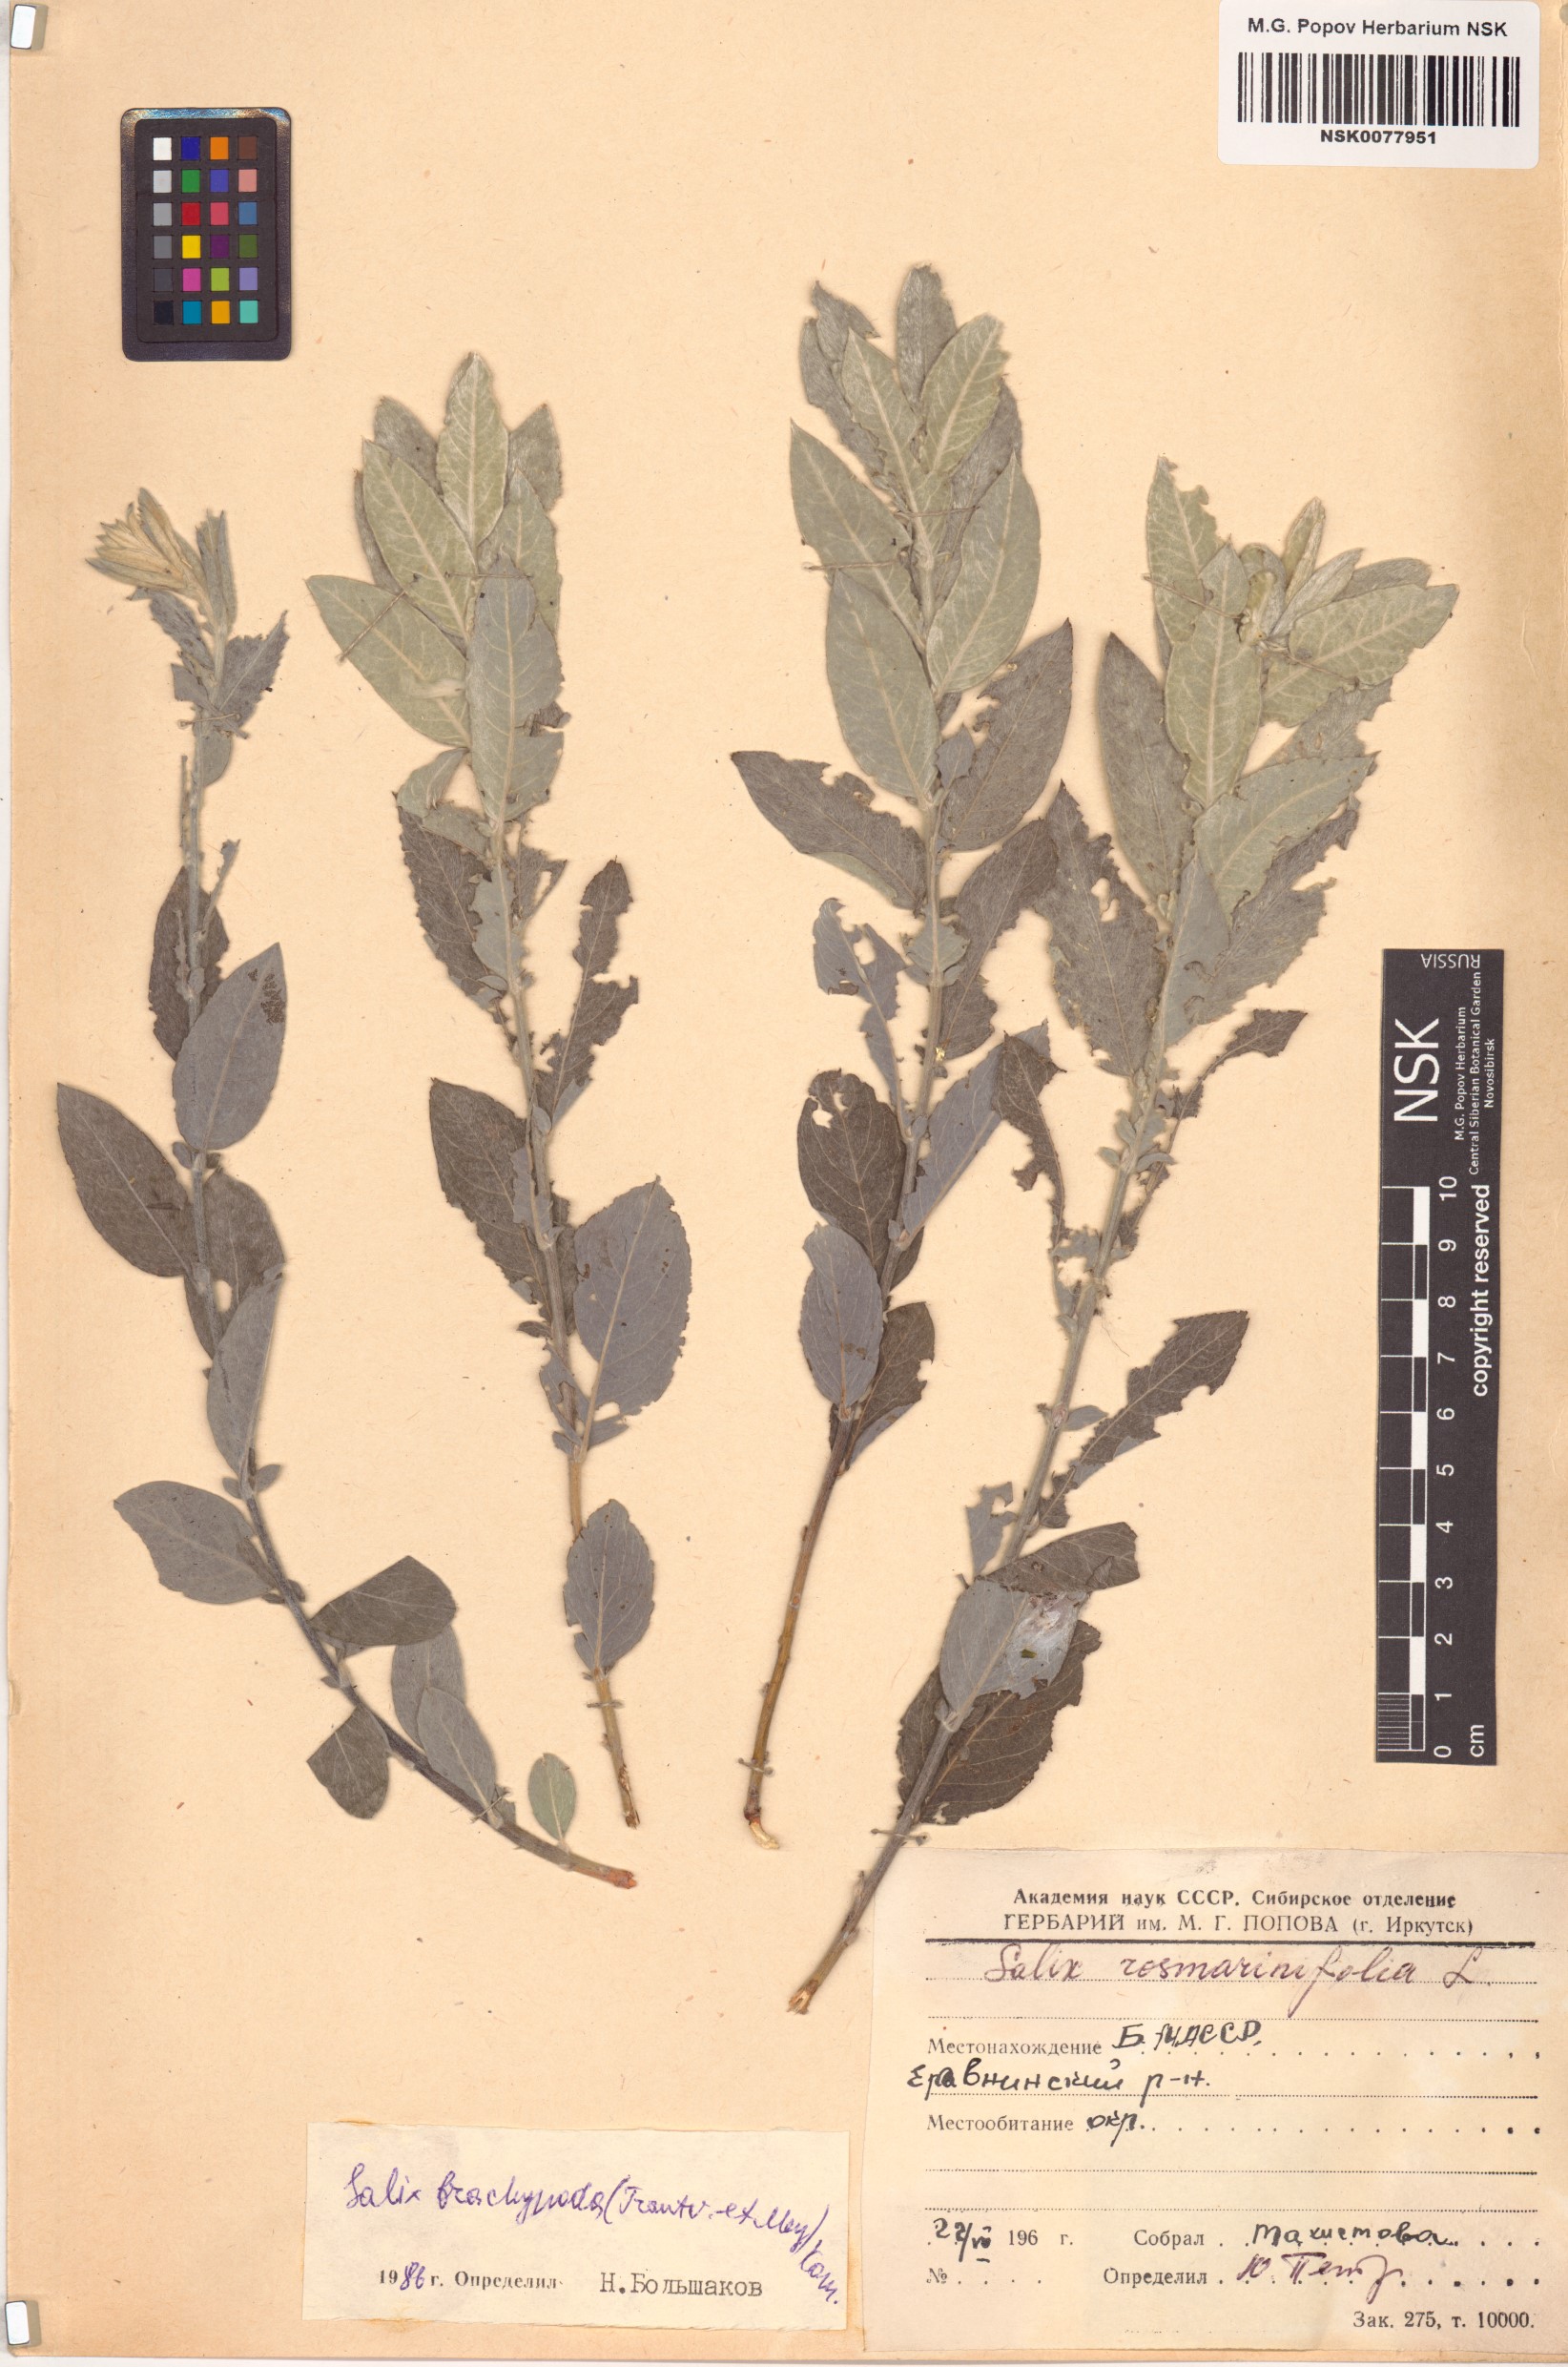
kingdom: Plantae
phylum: Tracheophyta
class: Magnoliopsida
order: Malpighiales
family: Salicaceae
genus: Salix
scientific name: Salix brachypoda
